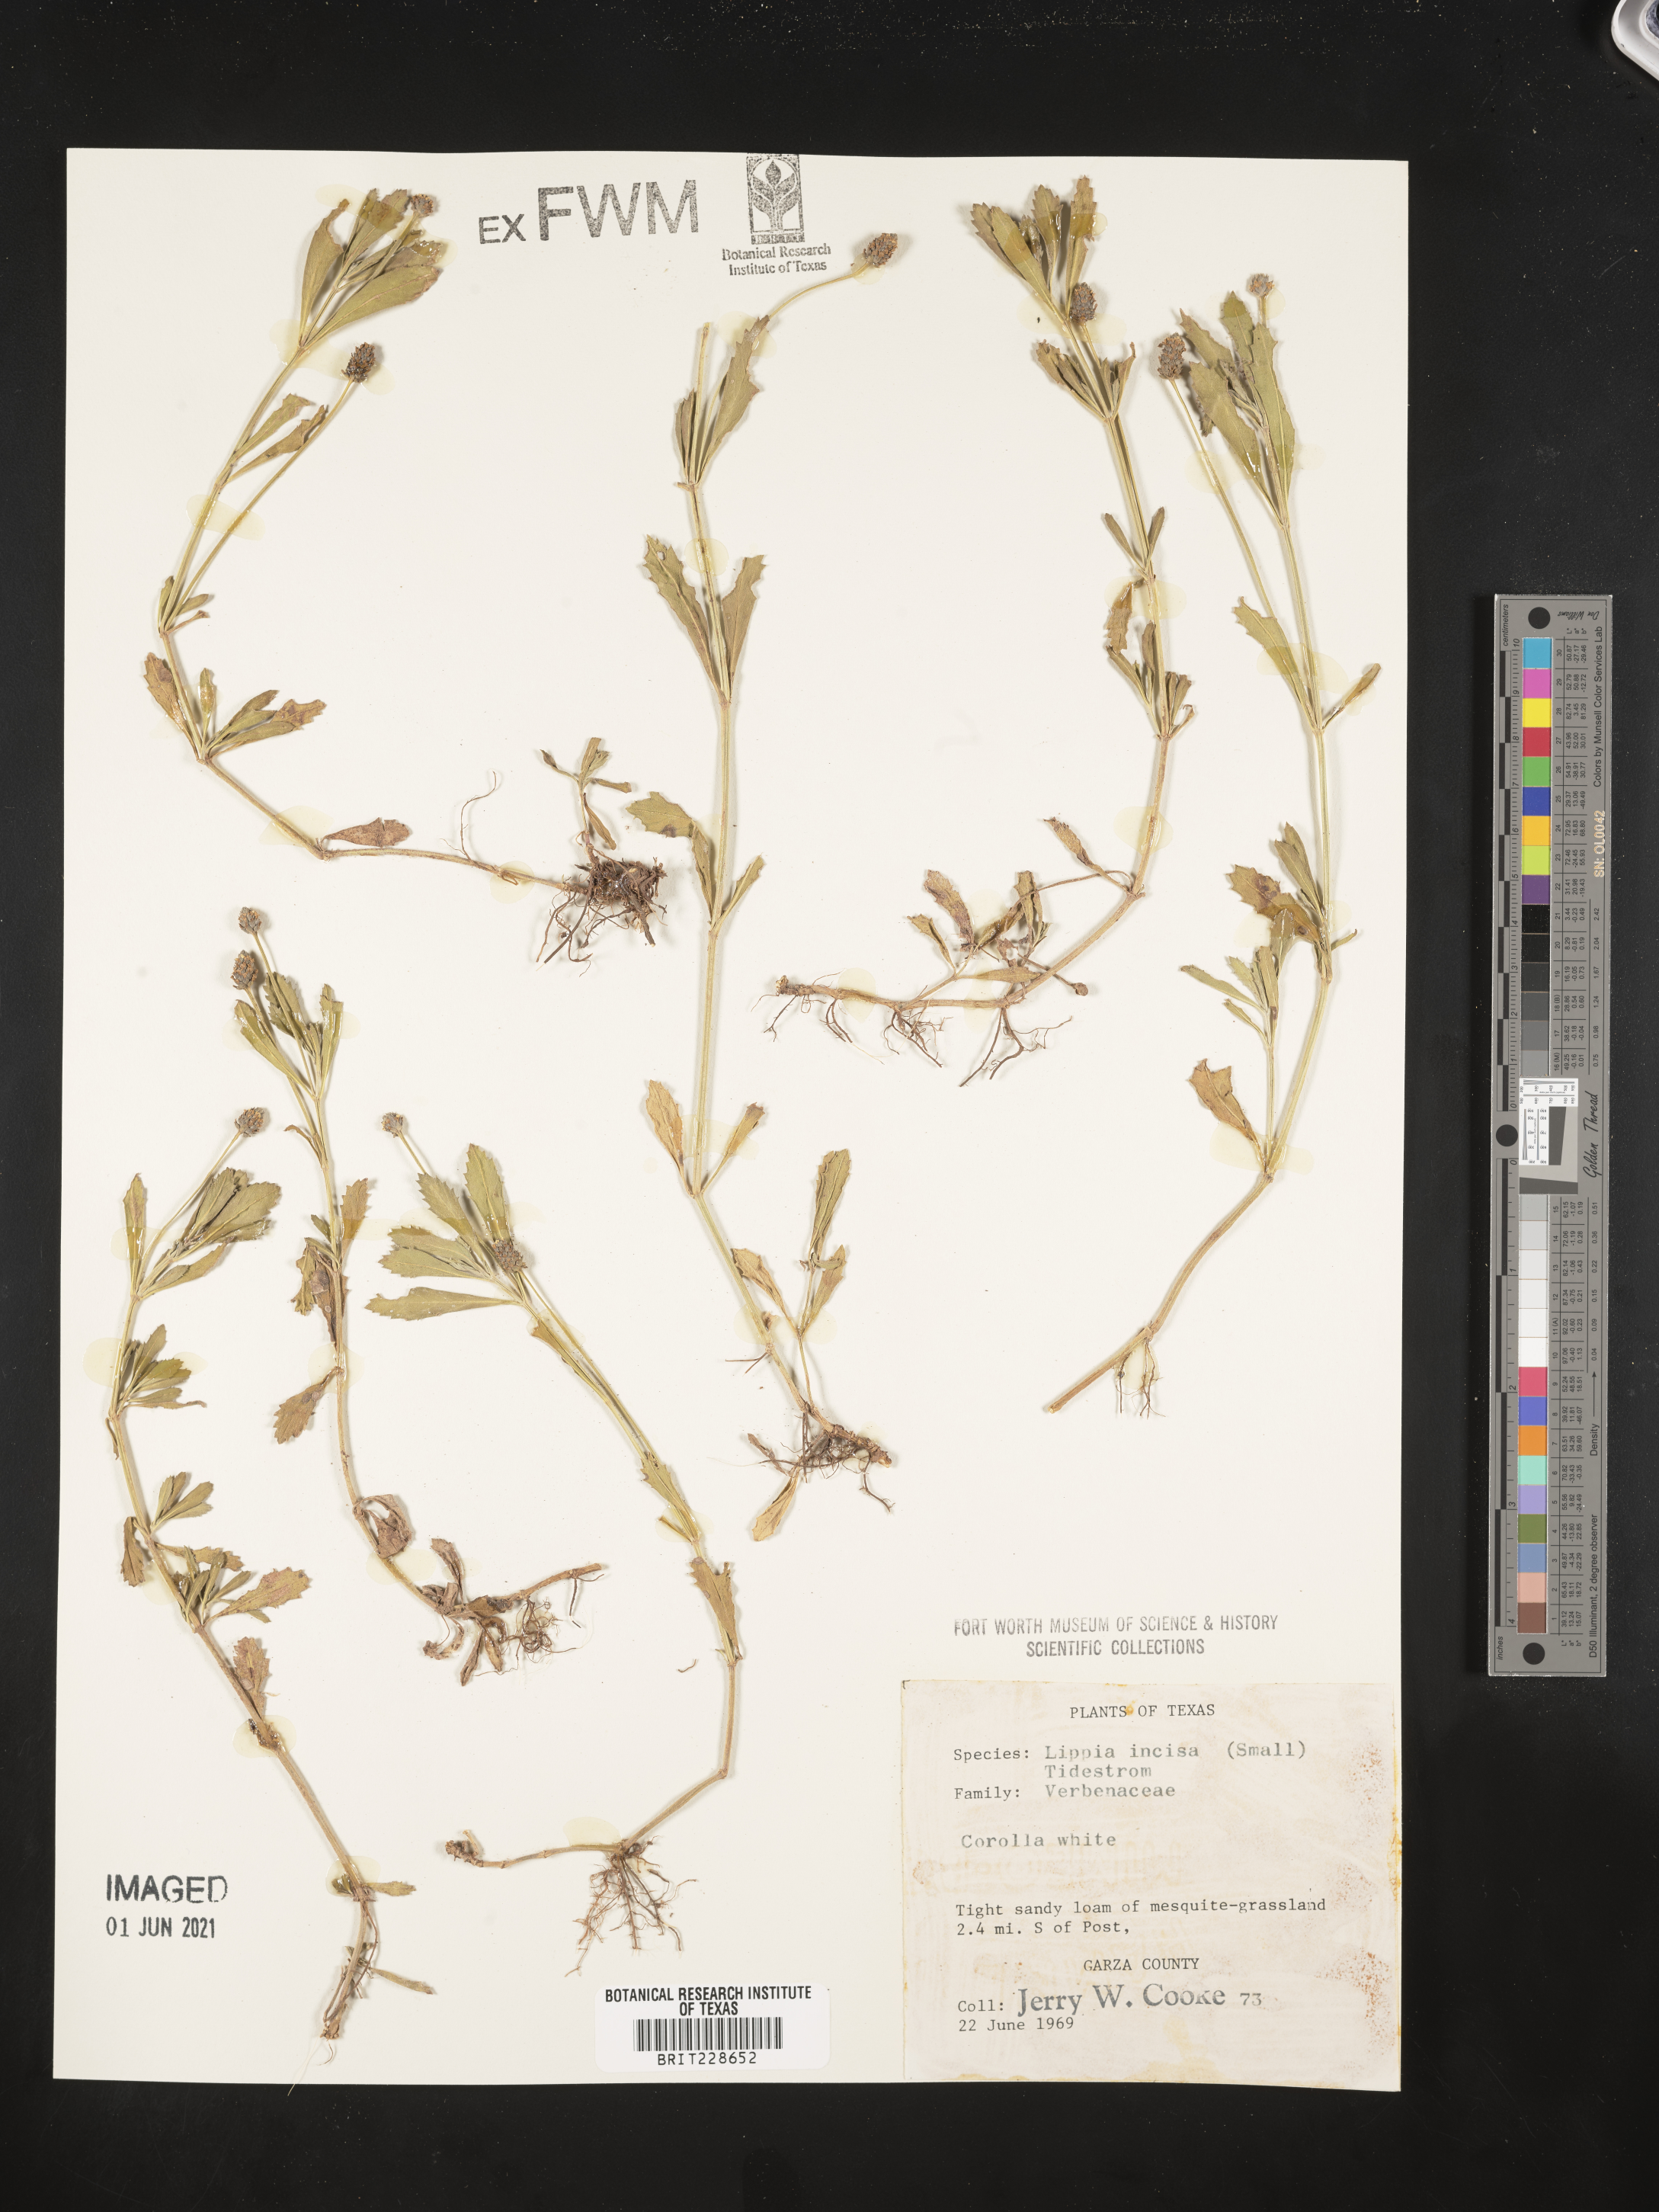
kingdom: Plantae
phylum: Tracheophyta
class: Magnoliopsida
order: Lamiales
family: Verbenaceae
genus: Phyla
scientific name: Phyla nodiflora
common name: Frogfruit
